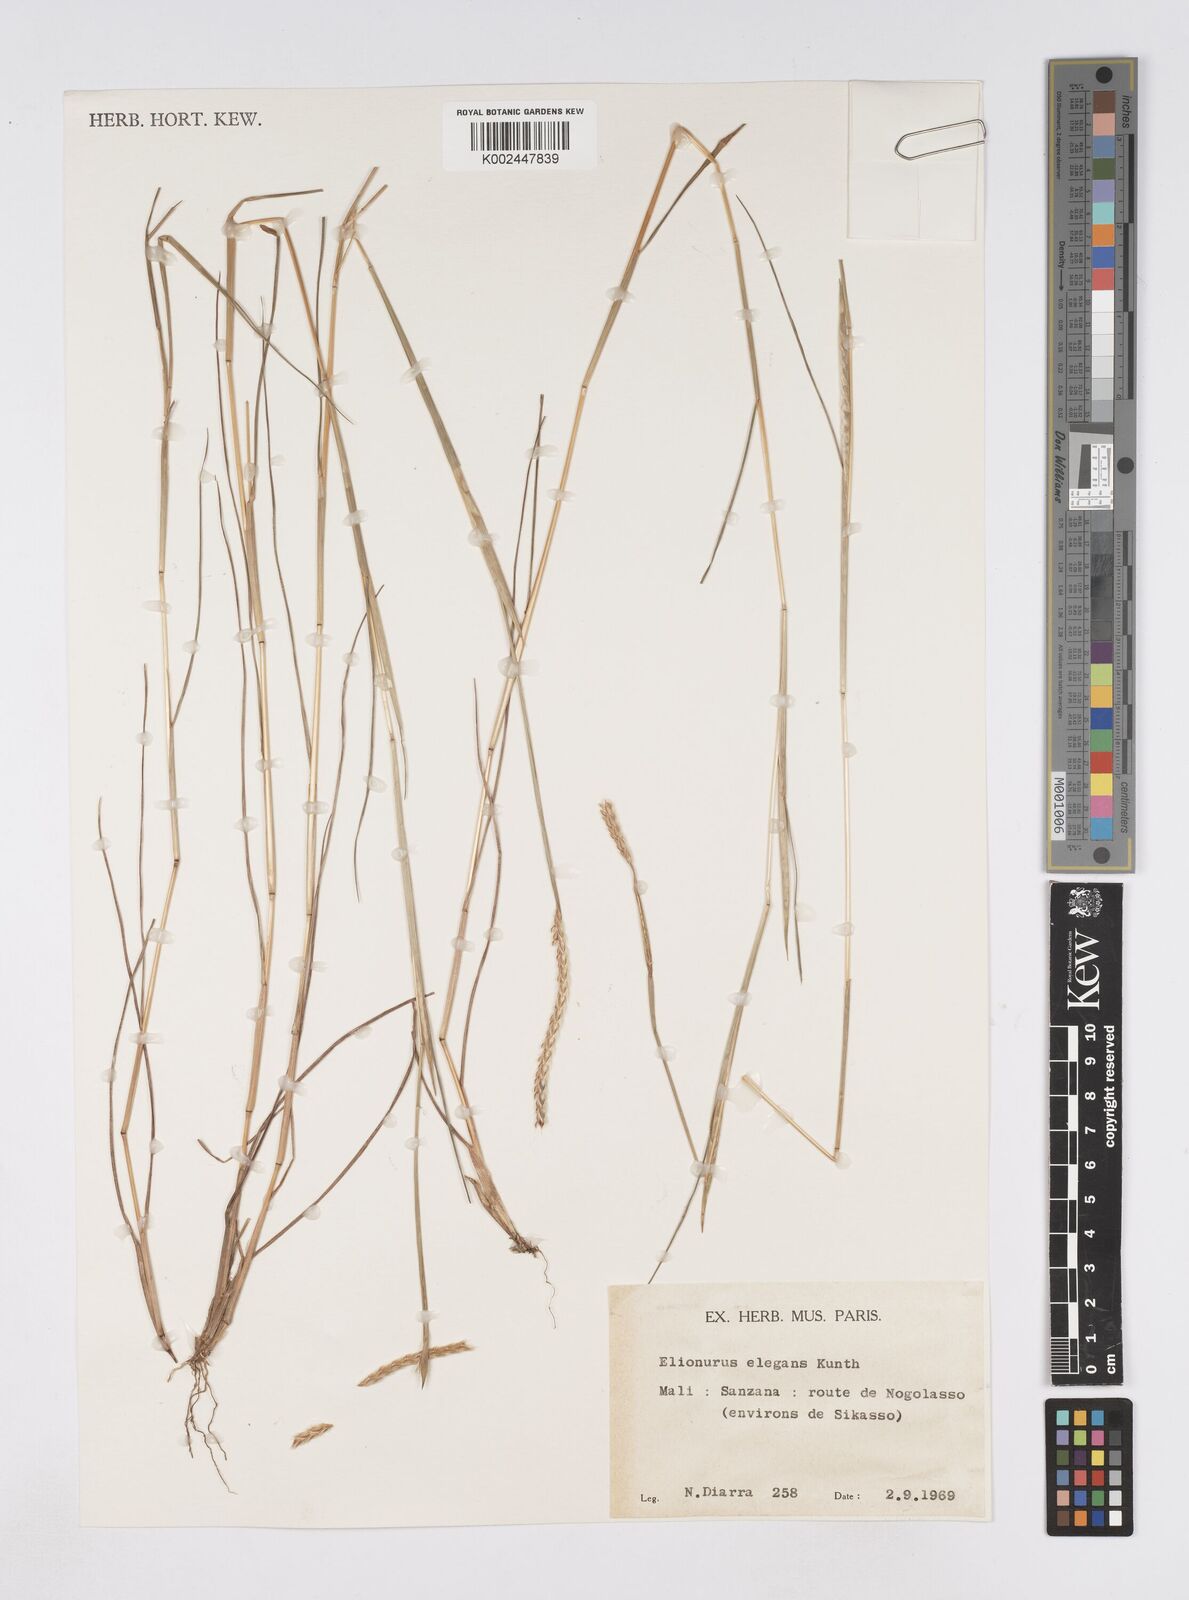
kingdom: Plantae
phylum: Tracheophyta
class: Liliopsida
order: Poales
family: Poaceae
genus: Elionurus
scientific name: Elionurus elegans
